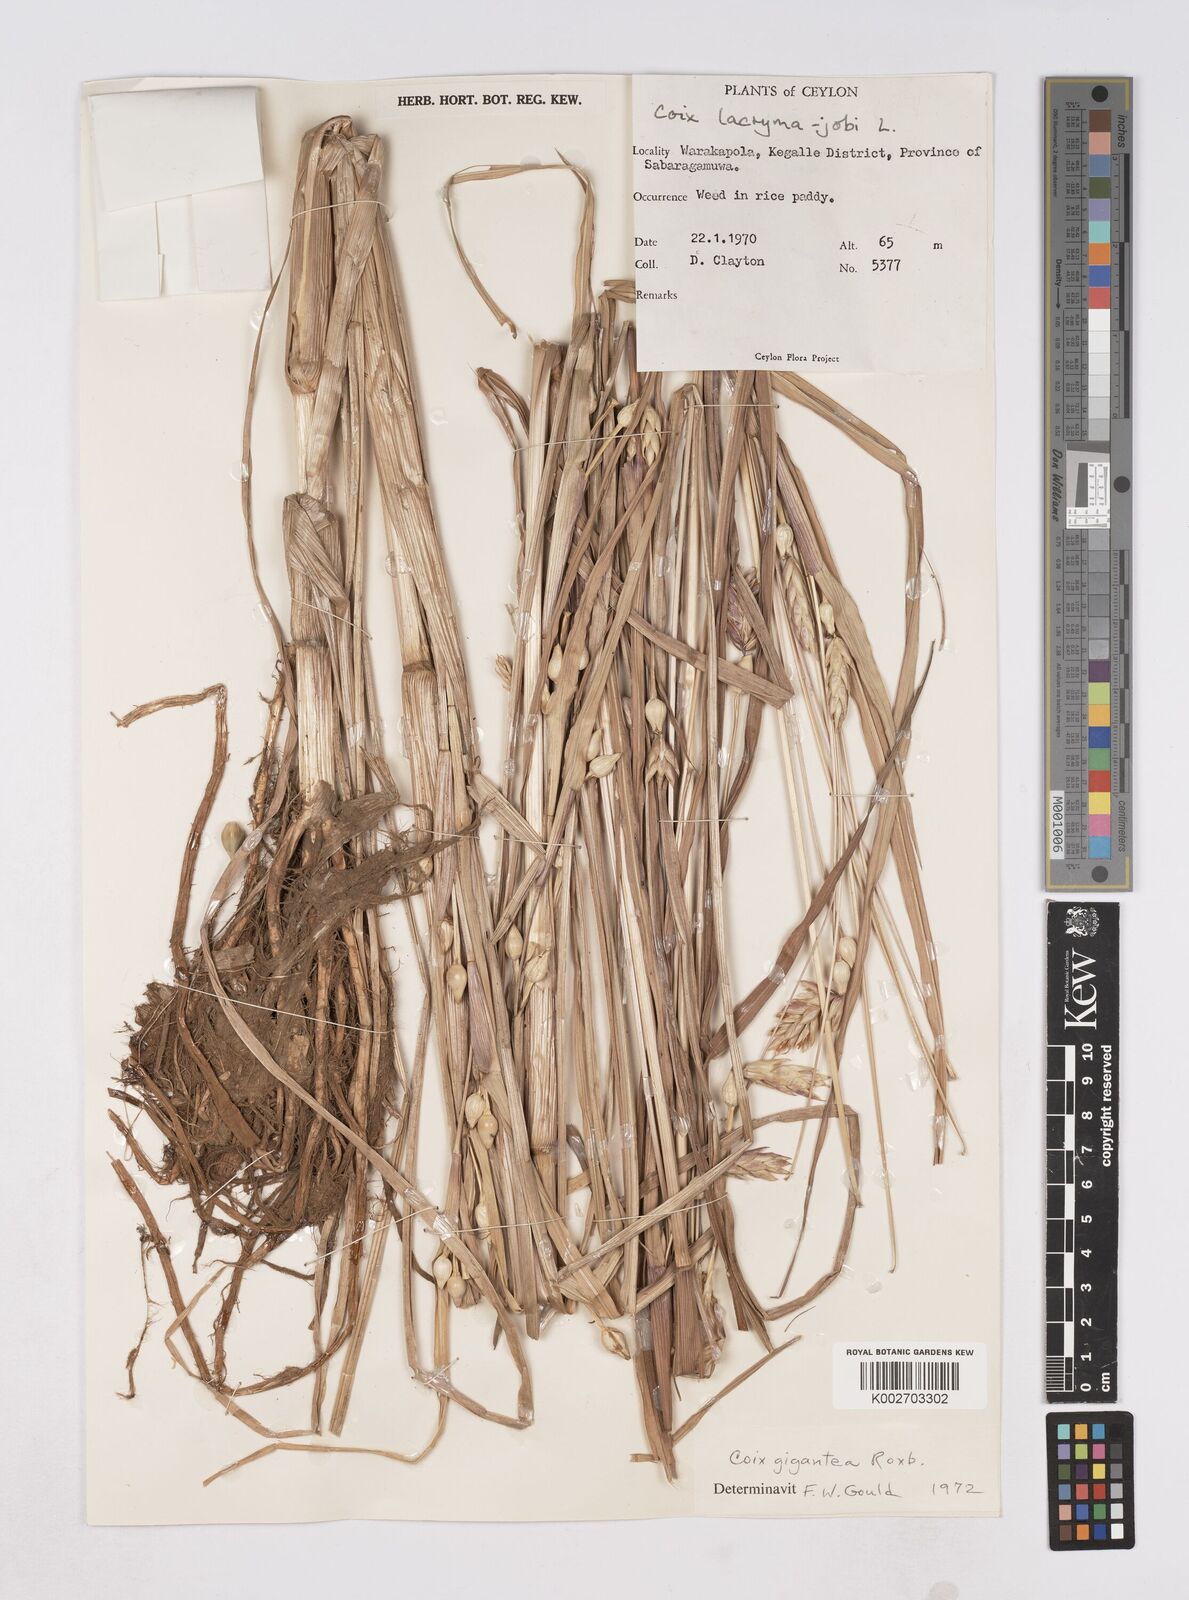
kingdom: Plantae
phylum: Tracheophyta
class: Liliopsida
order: Poales
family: Poaceae
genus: Polytoca
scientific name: Polytoca gigantea
